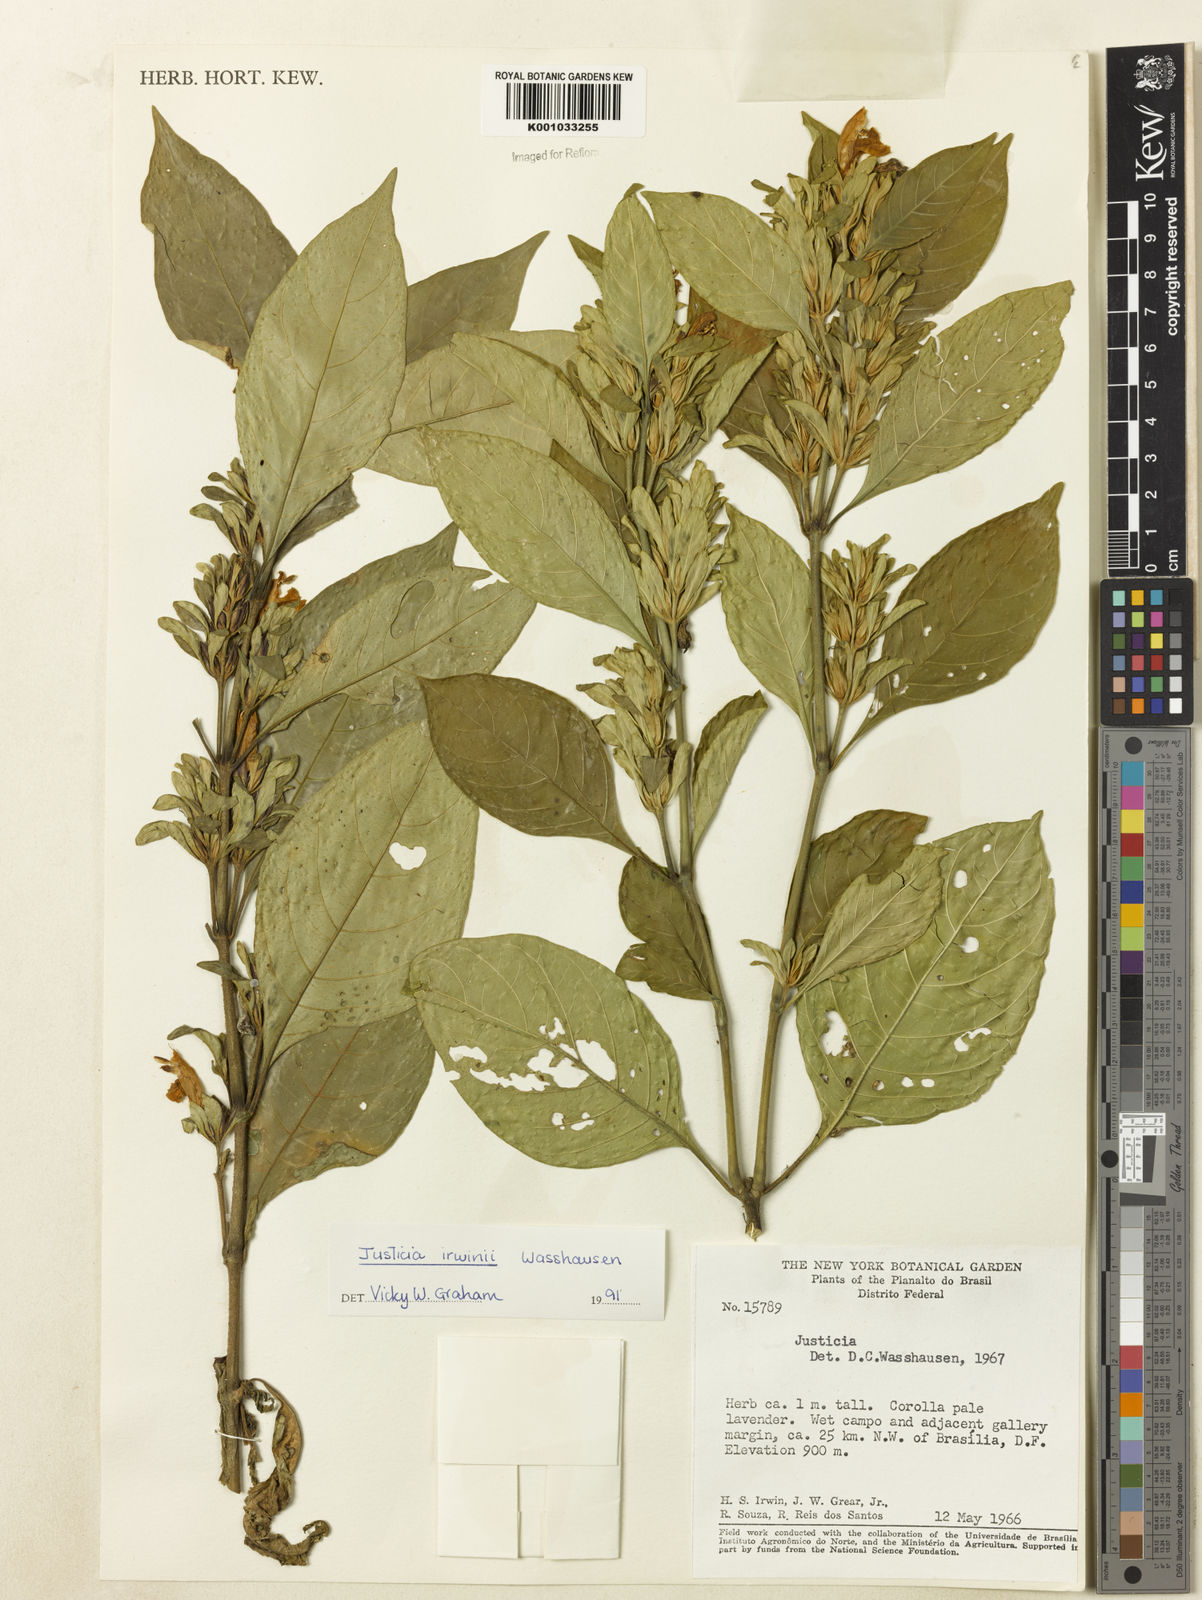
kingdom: Plantae
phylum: Tracheophyta
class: Magnoliopsida
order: Lamiales
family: Acanthaceae
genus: Justicia
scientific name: Justicia irwinii
